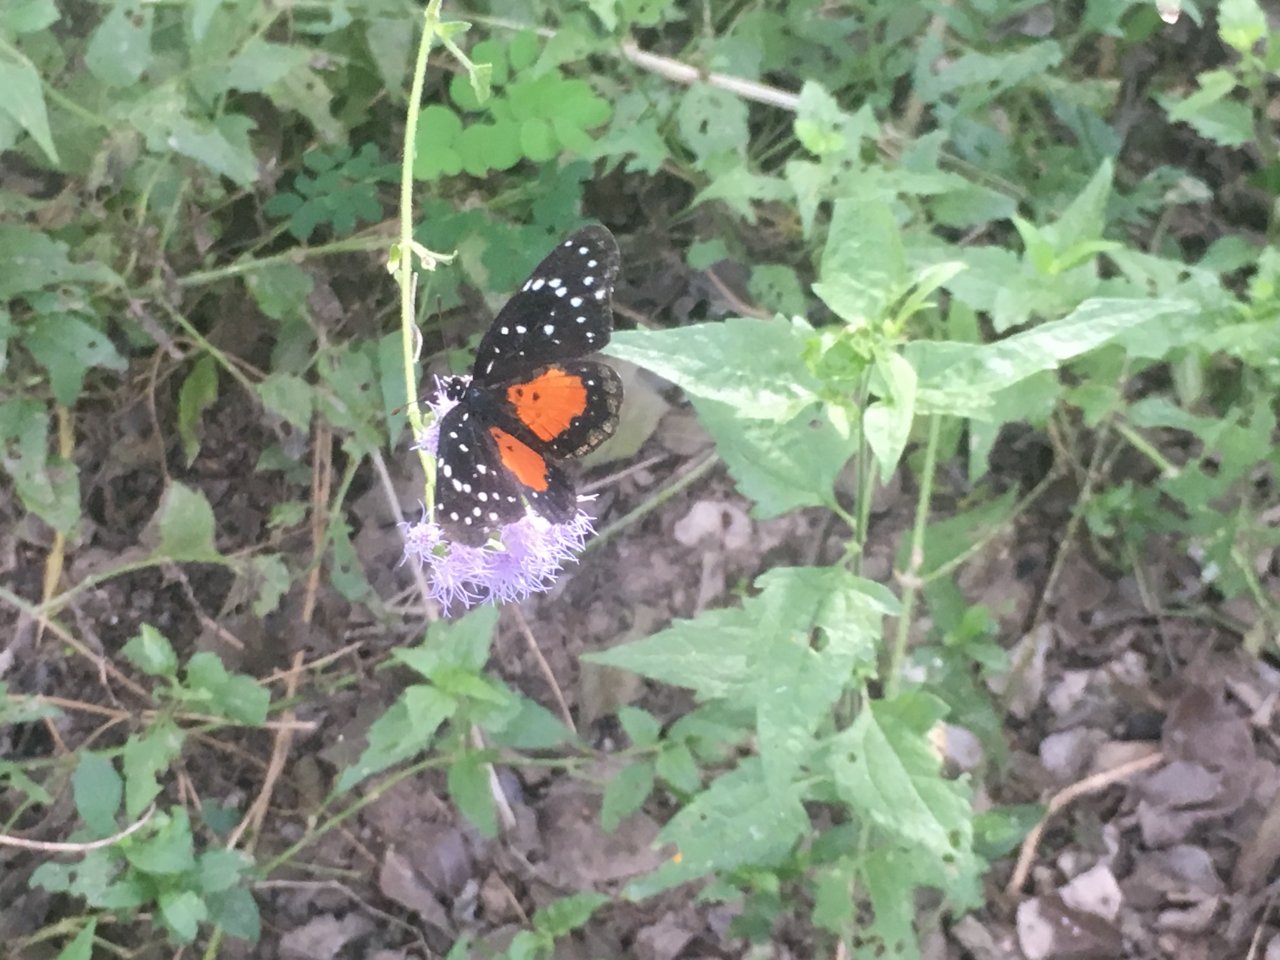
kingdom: Animalia
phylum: Arthropoda
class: Insecta
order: Lepidoptera
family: Nymphalidae
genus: Chlosyne
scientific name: Chlosyne janais
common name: Crimson Patch
